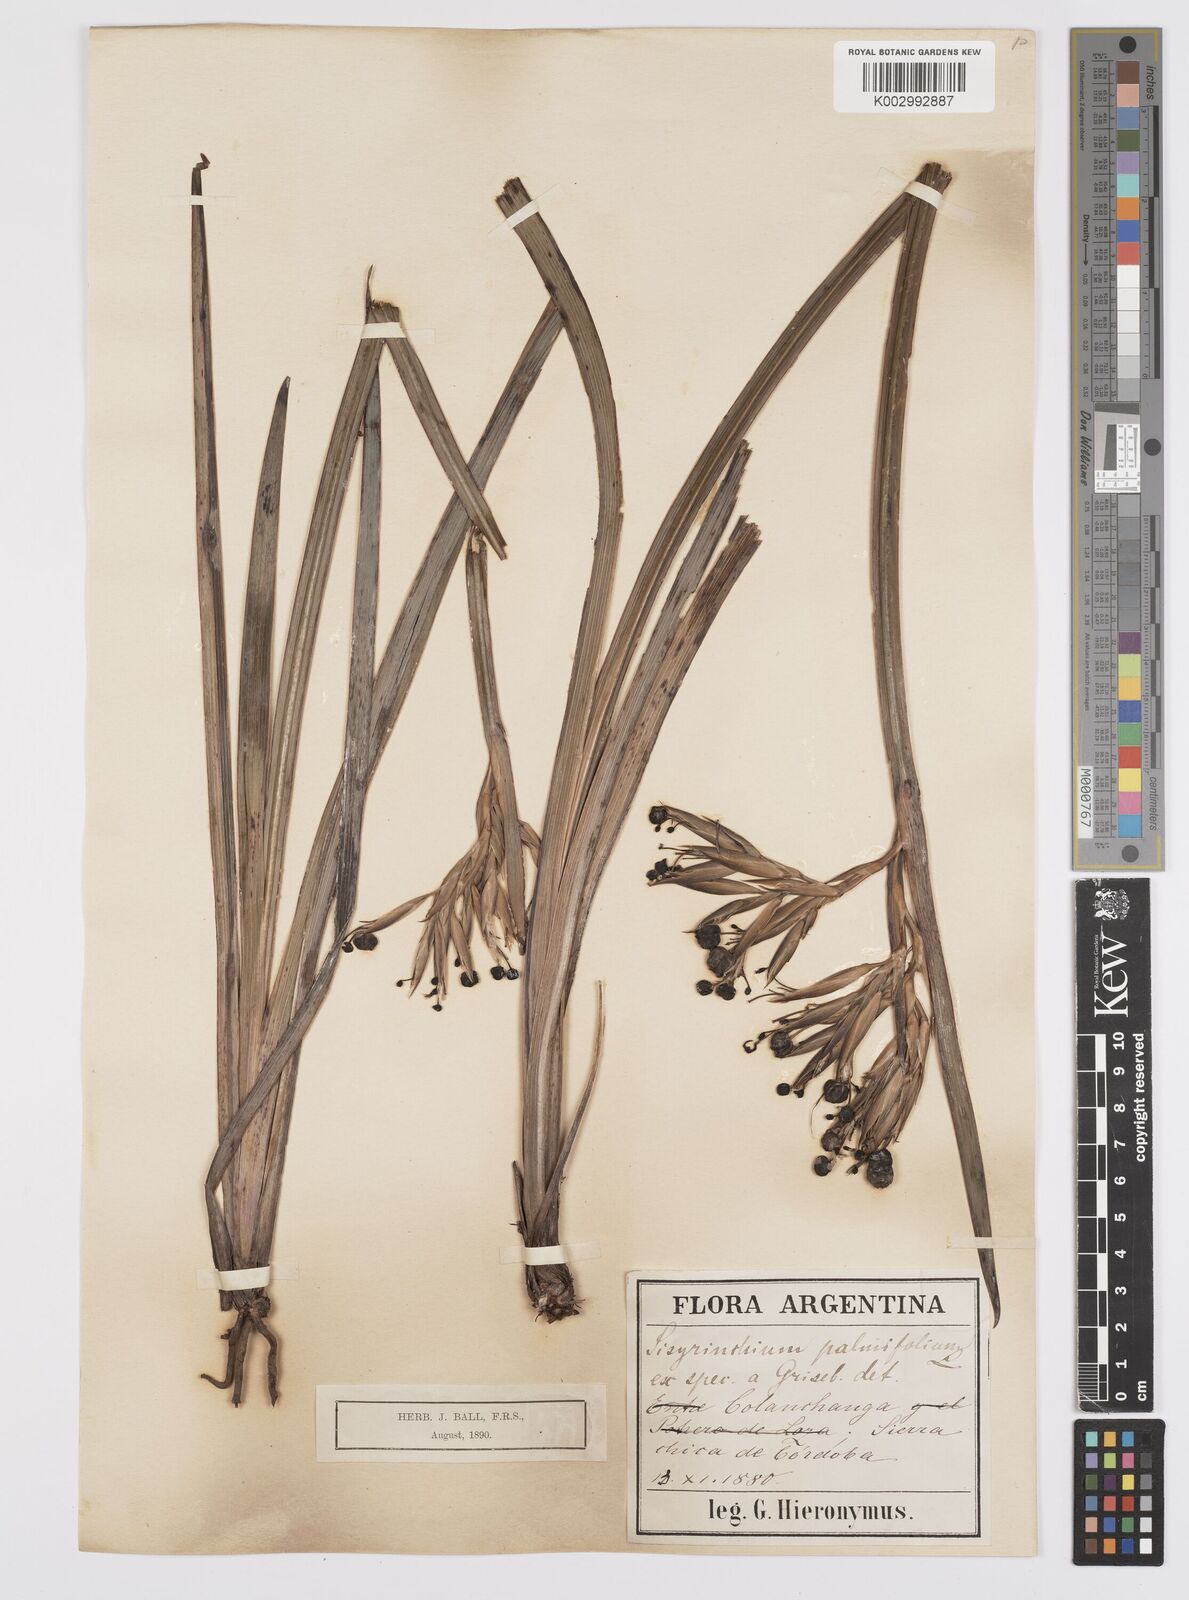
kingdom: Plantae
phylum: Tracheophyta
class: Liliopsida
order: Asparagales
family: Iridaceae
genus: Sisyrinchium
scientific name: Sisyrinchium palmifolium
